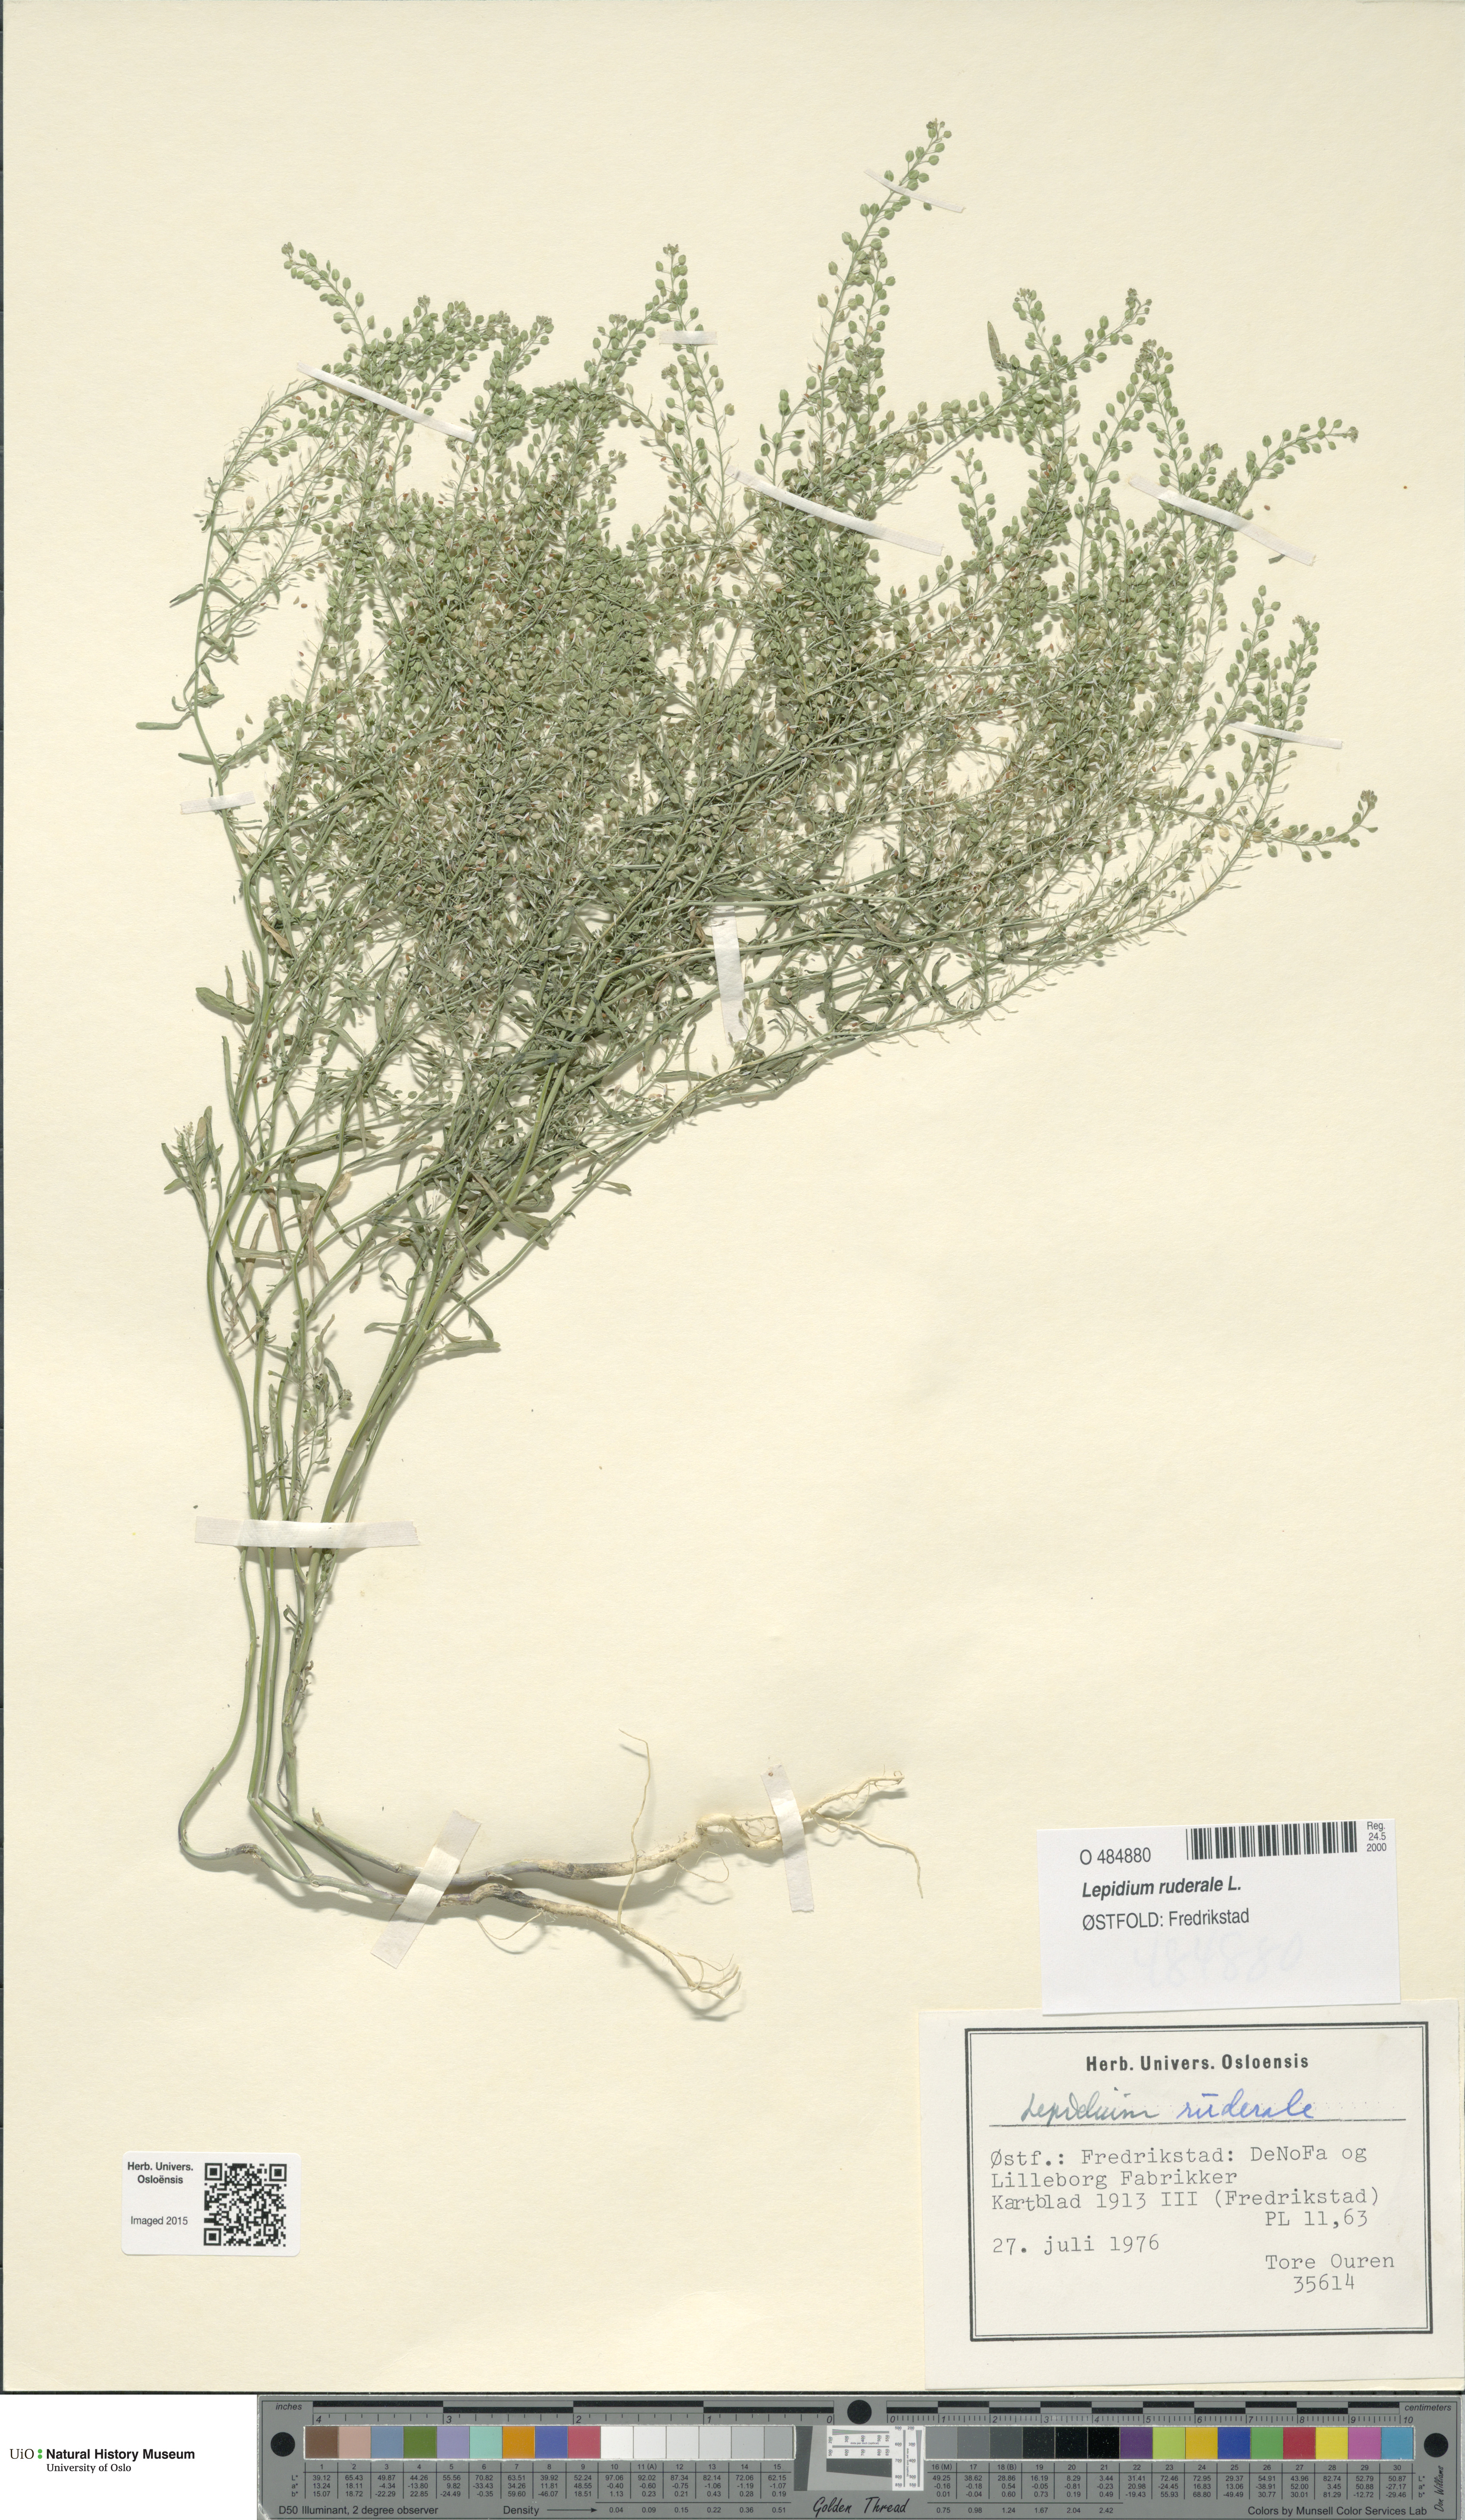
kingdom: Plantae
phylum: Tracheophyta
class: Magnoliopsida
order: Brassicales
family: Brassicaceae
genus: Lepidium
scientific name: Lepidium ruderale
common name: Narrow-leaved pepperwort
